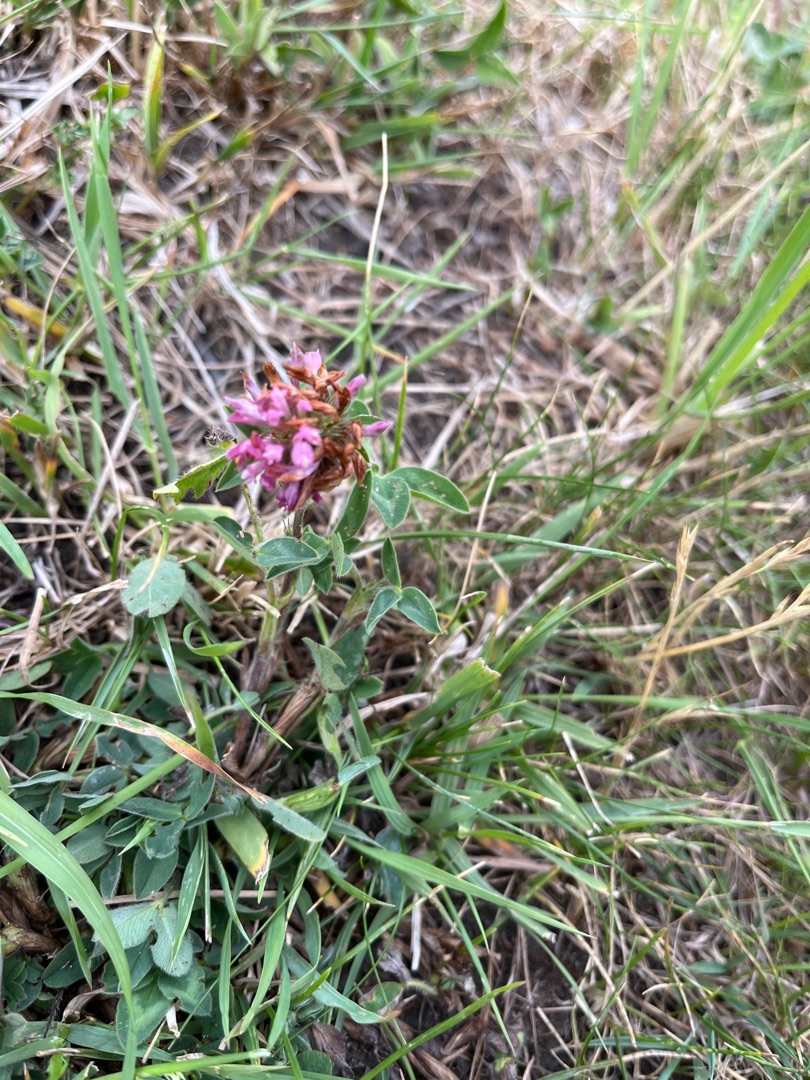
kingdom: Plantae
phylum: Tracheophyta
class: Magnoliopsida
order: Fabales
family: Fabaceae
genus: Trifolium
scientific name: Trifolium pratense
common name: Rød-kløver
